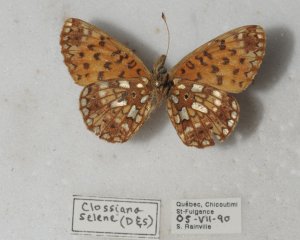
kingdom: Animalia
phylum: Arthropoda
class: Insecta
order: Lepidoptera
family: Nymphalidae
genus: Boloria
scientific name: Boloria selene
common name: Silver-bordered Fritillary
